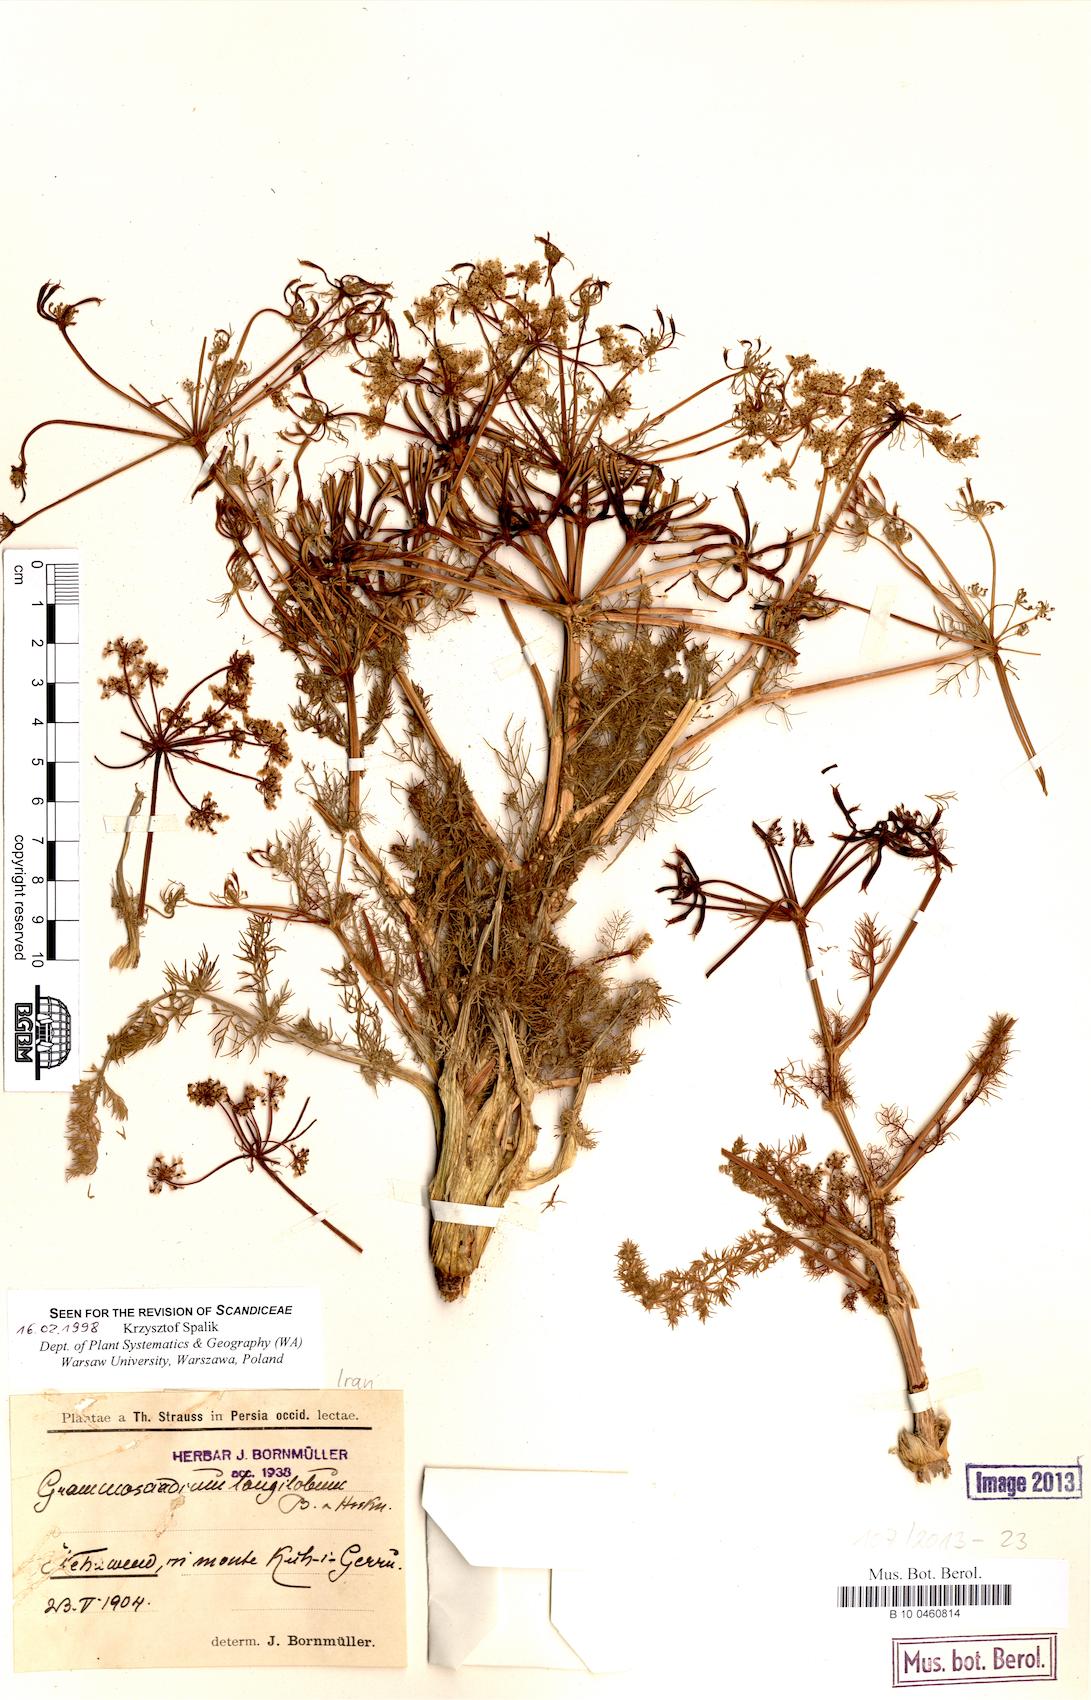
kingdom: Plantae
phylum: Tracheophyta
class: Magnoliopsida
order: Apiales
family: Apiaceae
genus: Grammosciadium
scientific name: Grammosciadium scabridum
